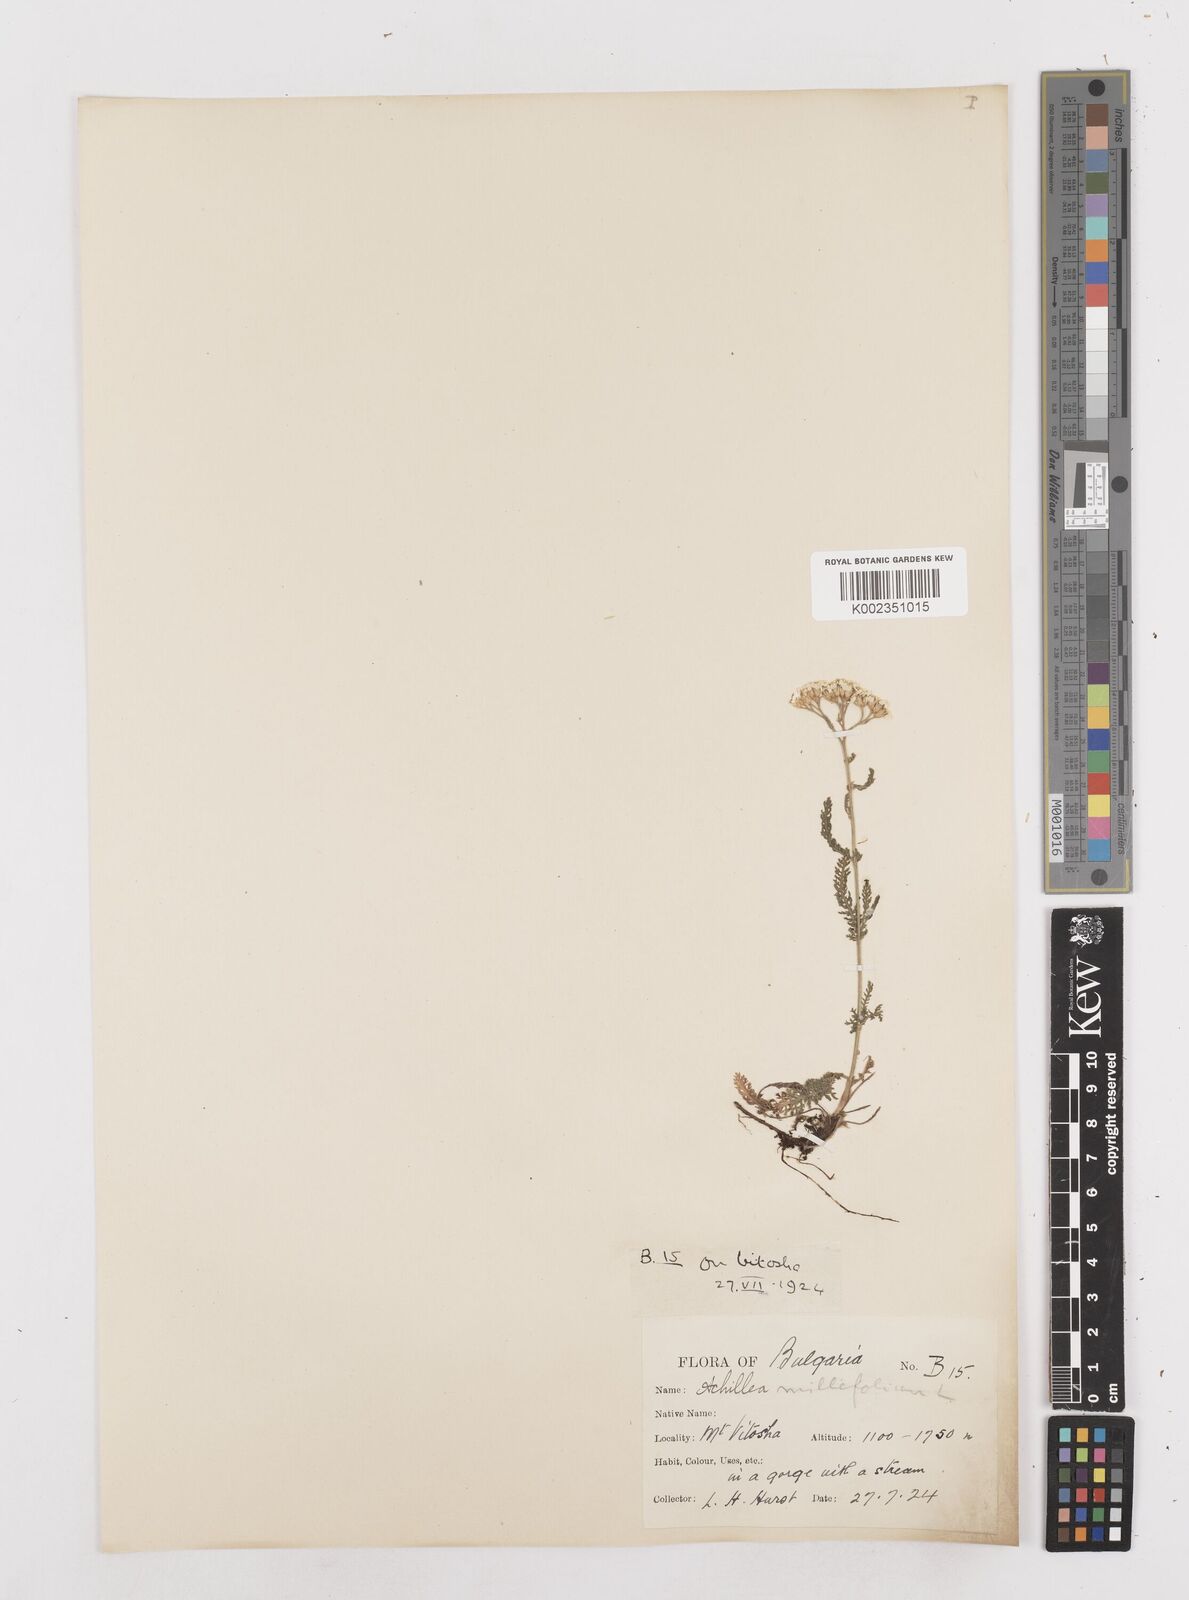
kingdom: Plantae
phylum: Tracheophyta
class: Magnoliopsida
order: Asterales
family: Asteraceae
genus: Achillea
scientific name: Achillea millefolium
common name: Yarrow
